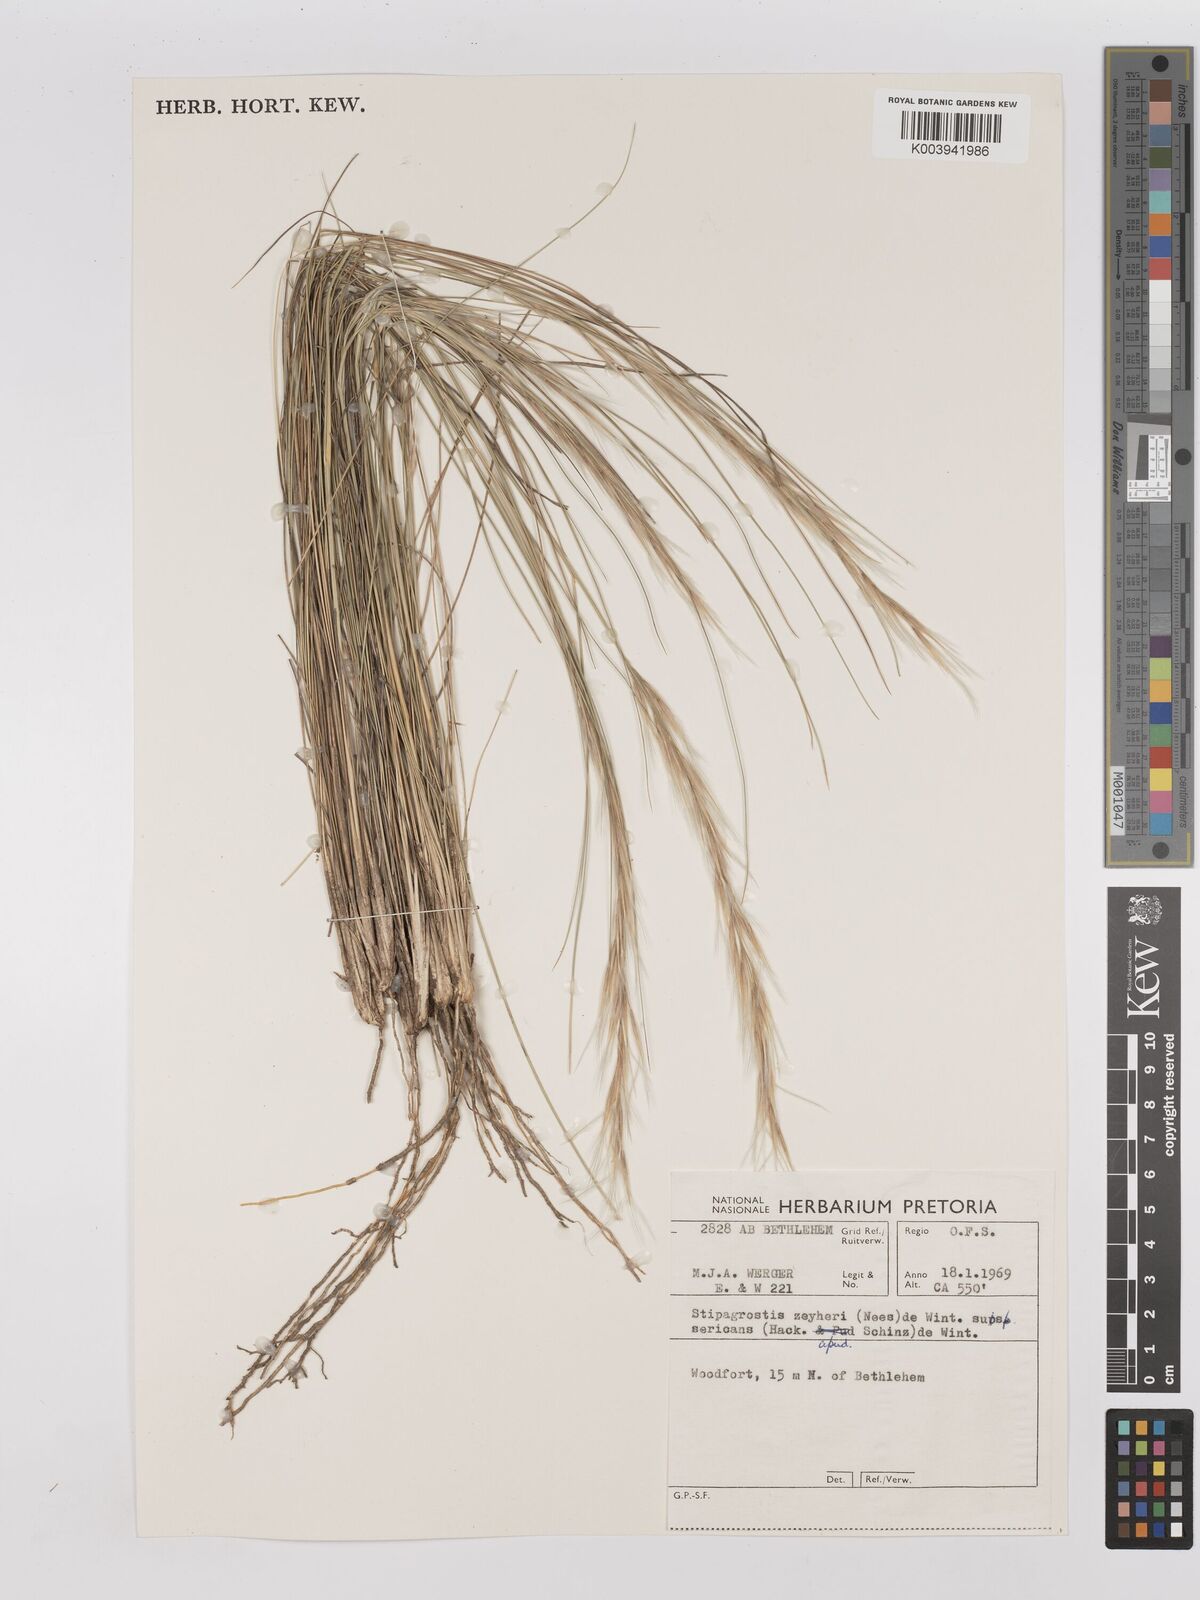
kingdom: Plantae
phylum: Tracheophyta
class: Liliopsida
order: Poales
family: Poaceae
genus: Stipagrostis
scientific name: Stipagrostis zeyheri
